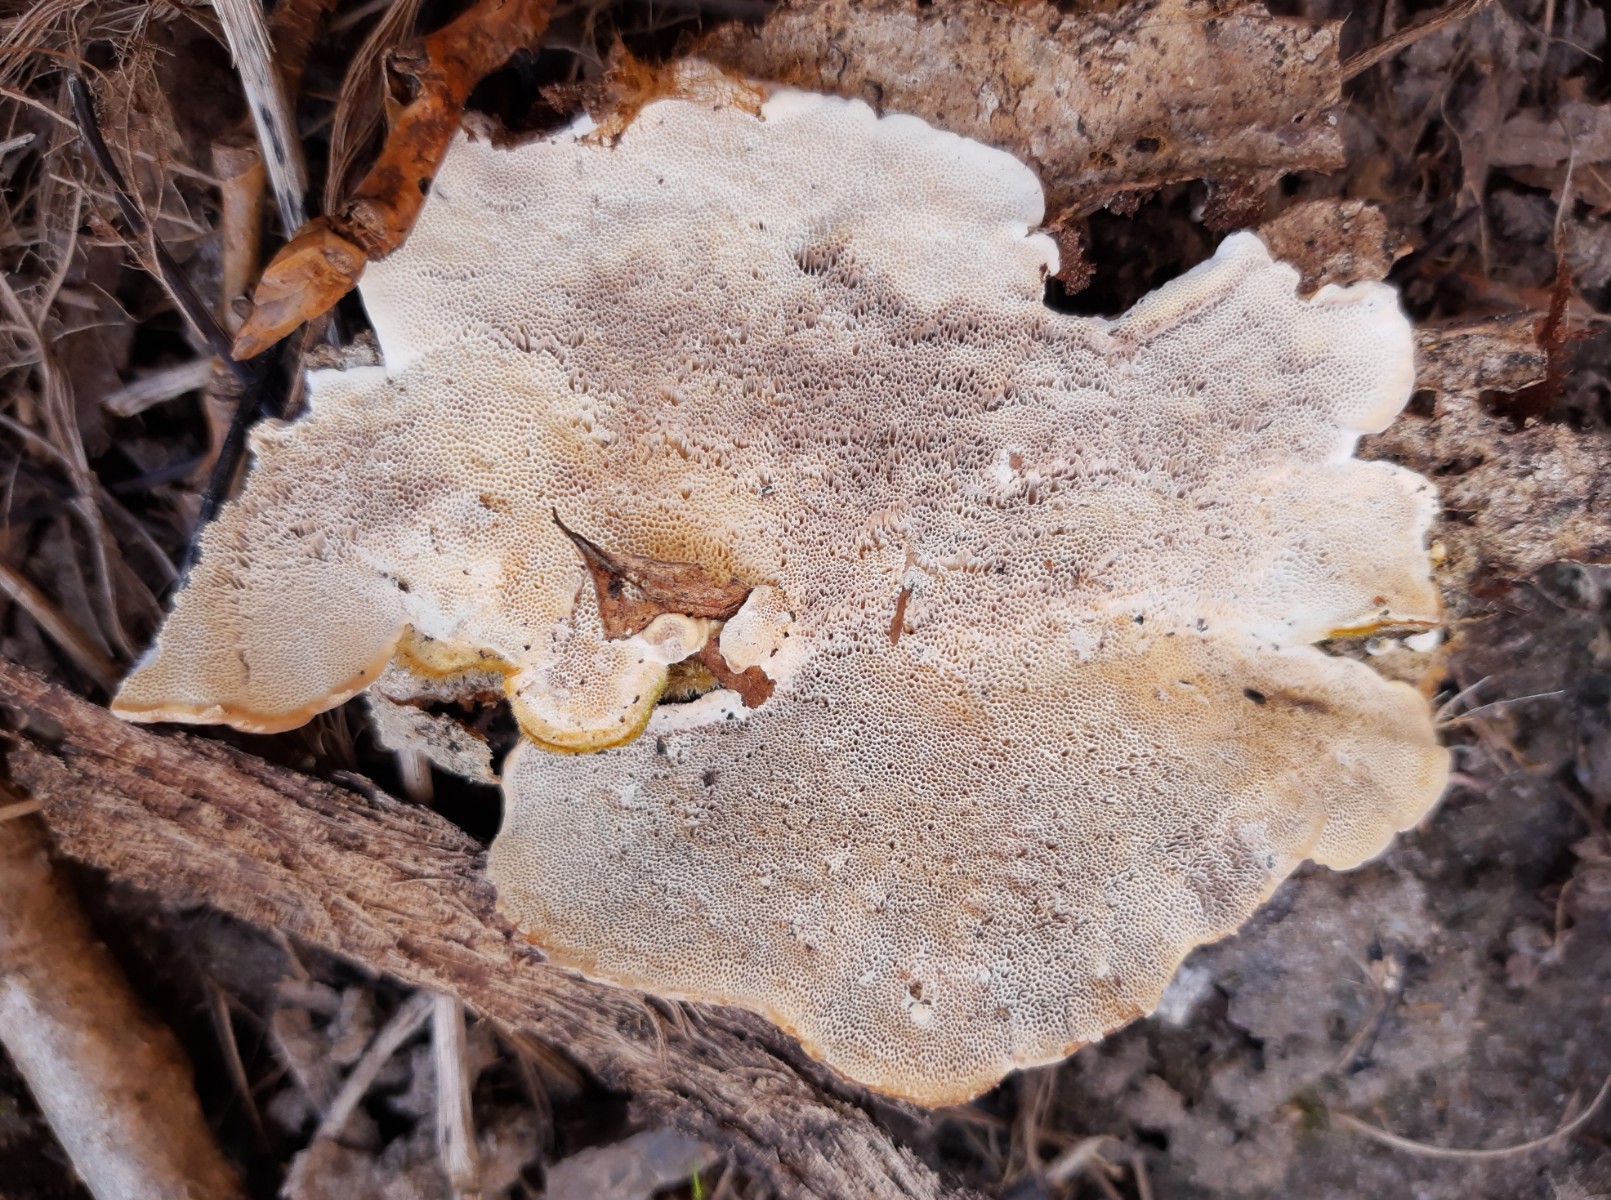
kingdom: Fungi
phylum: Basidiomycota
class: Agaricomycetes
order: Polyporales
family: Polyporaceae
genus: Trametes
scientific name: Trametes hirsuta
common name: håret læderporesvamp
